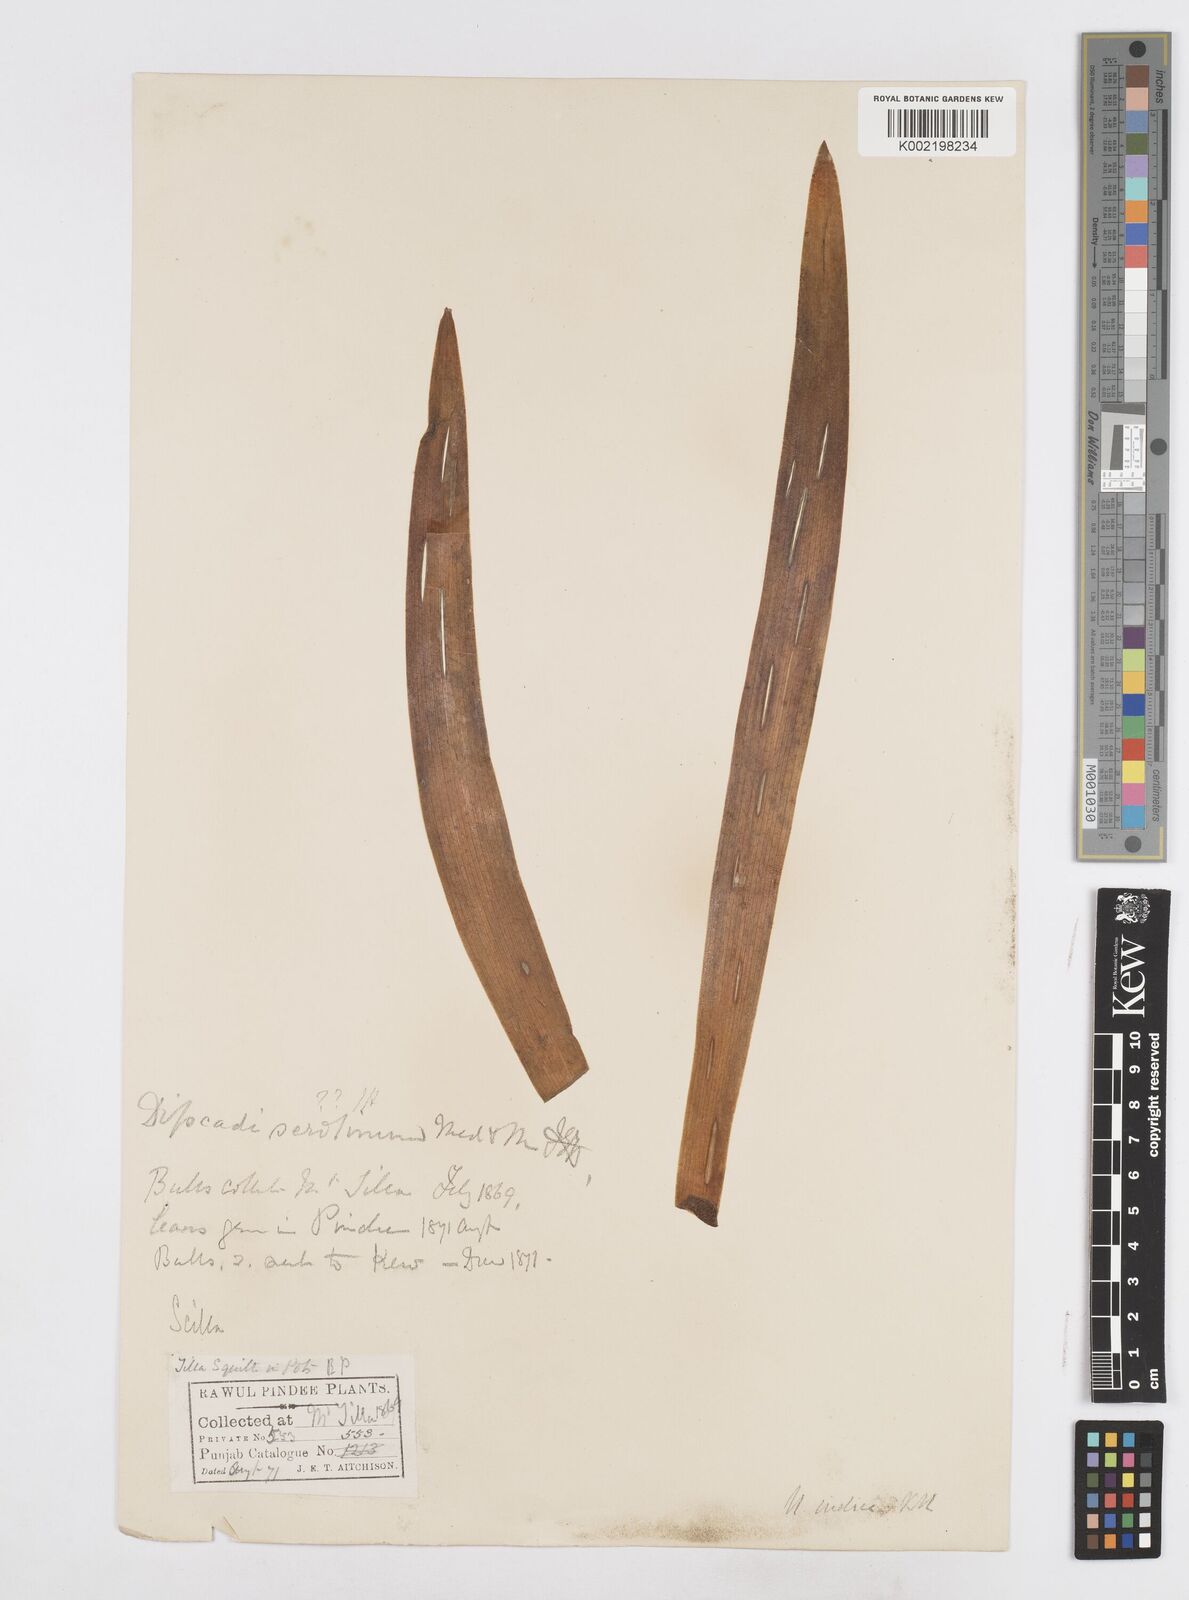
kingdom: Plantae
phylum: Tracheophyta
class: Liliopsida
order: Asparagales
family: Asparagaceae
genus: Drimia
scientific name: Drimia indica
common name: Indian-squill
